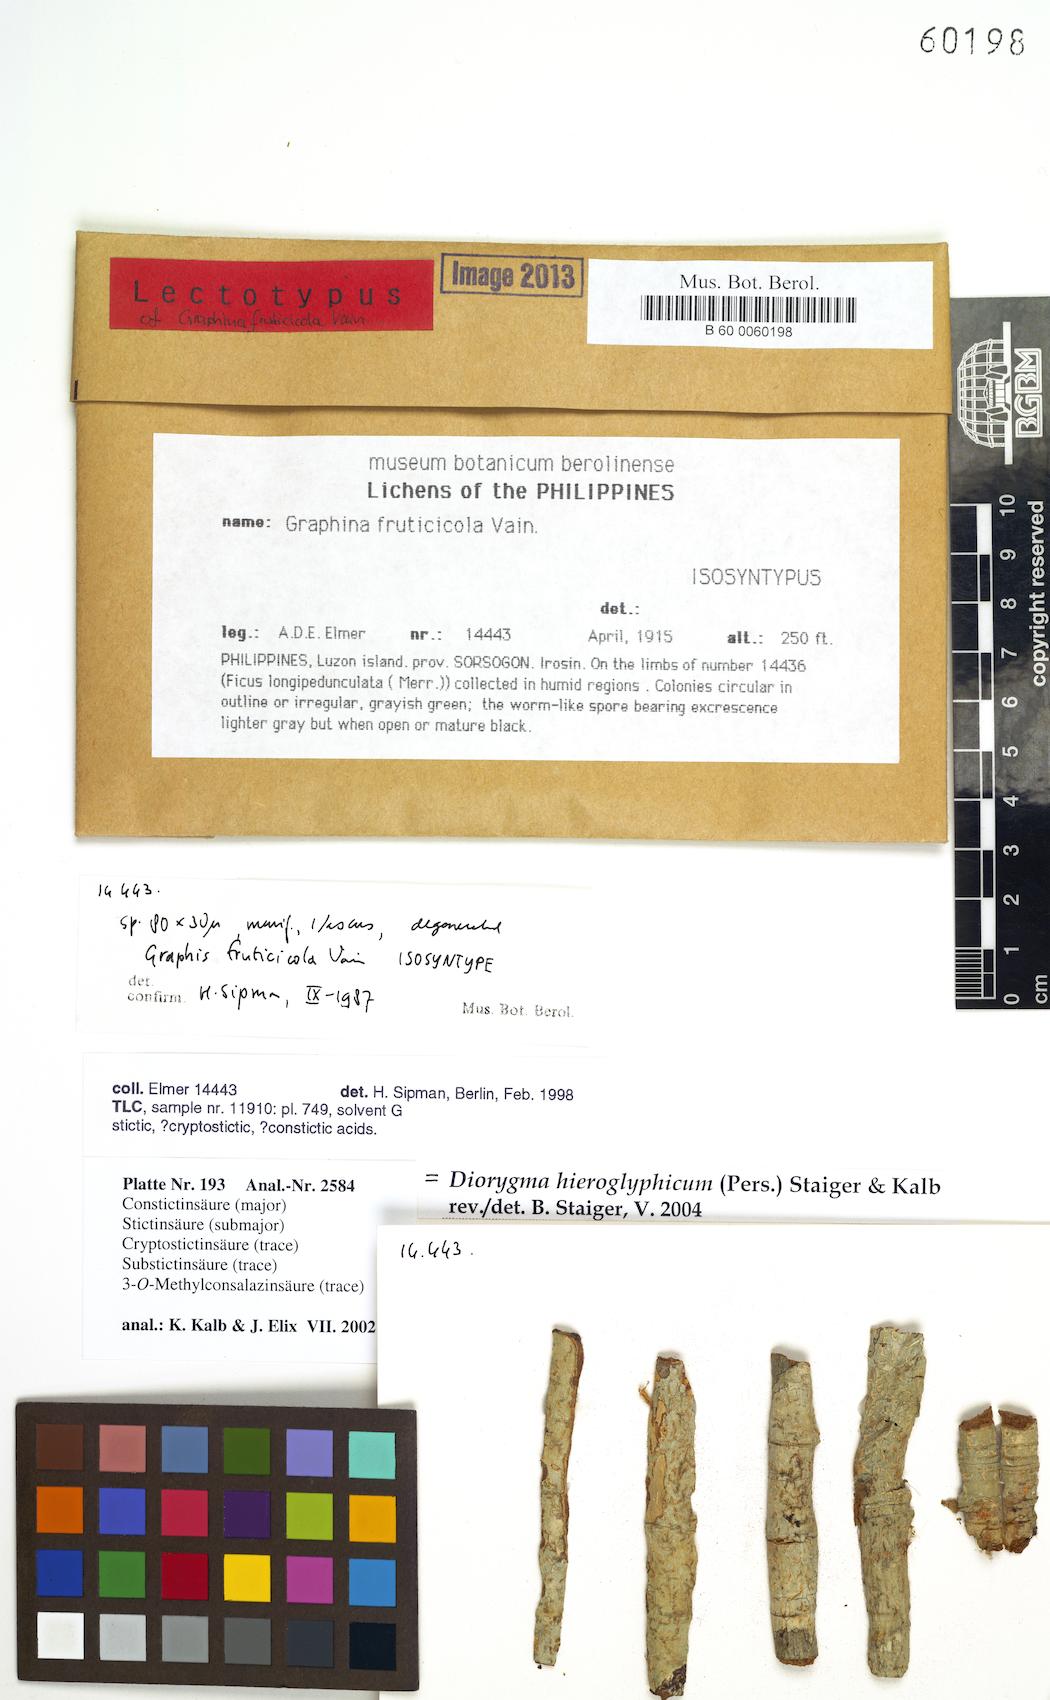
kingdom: Fungi
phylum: Ascomycota
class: Lecanoromycetes
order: Ostropales
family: Graphidaceae
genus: Graphina
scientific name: Graphina
